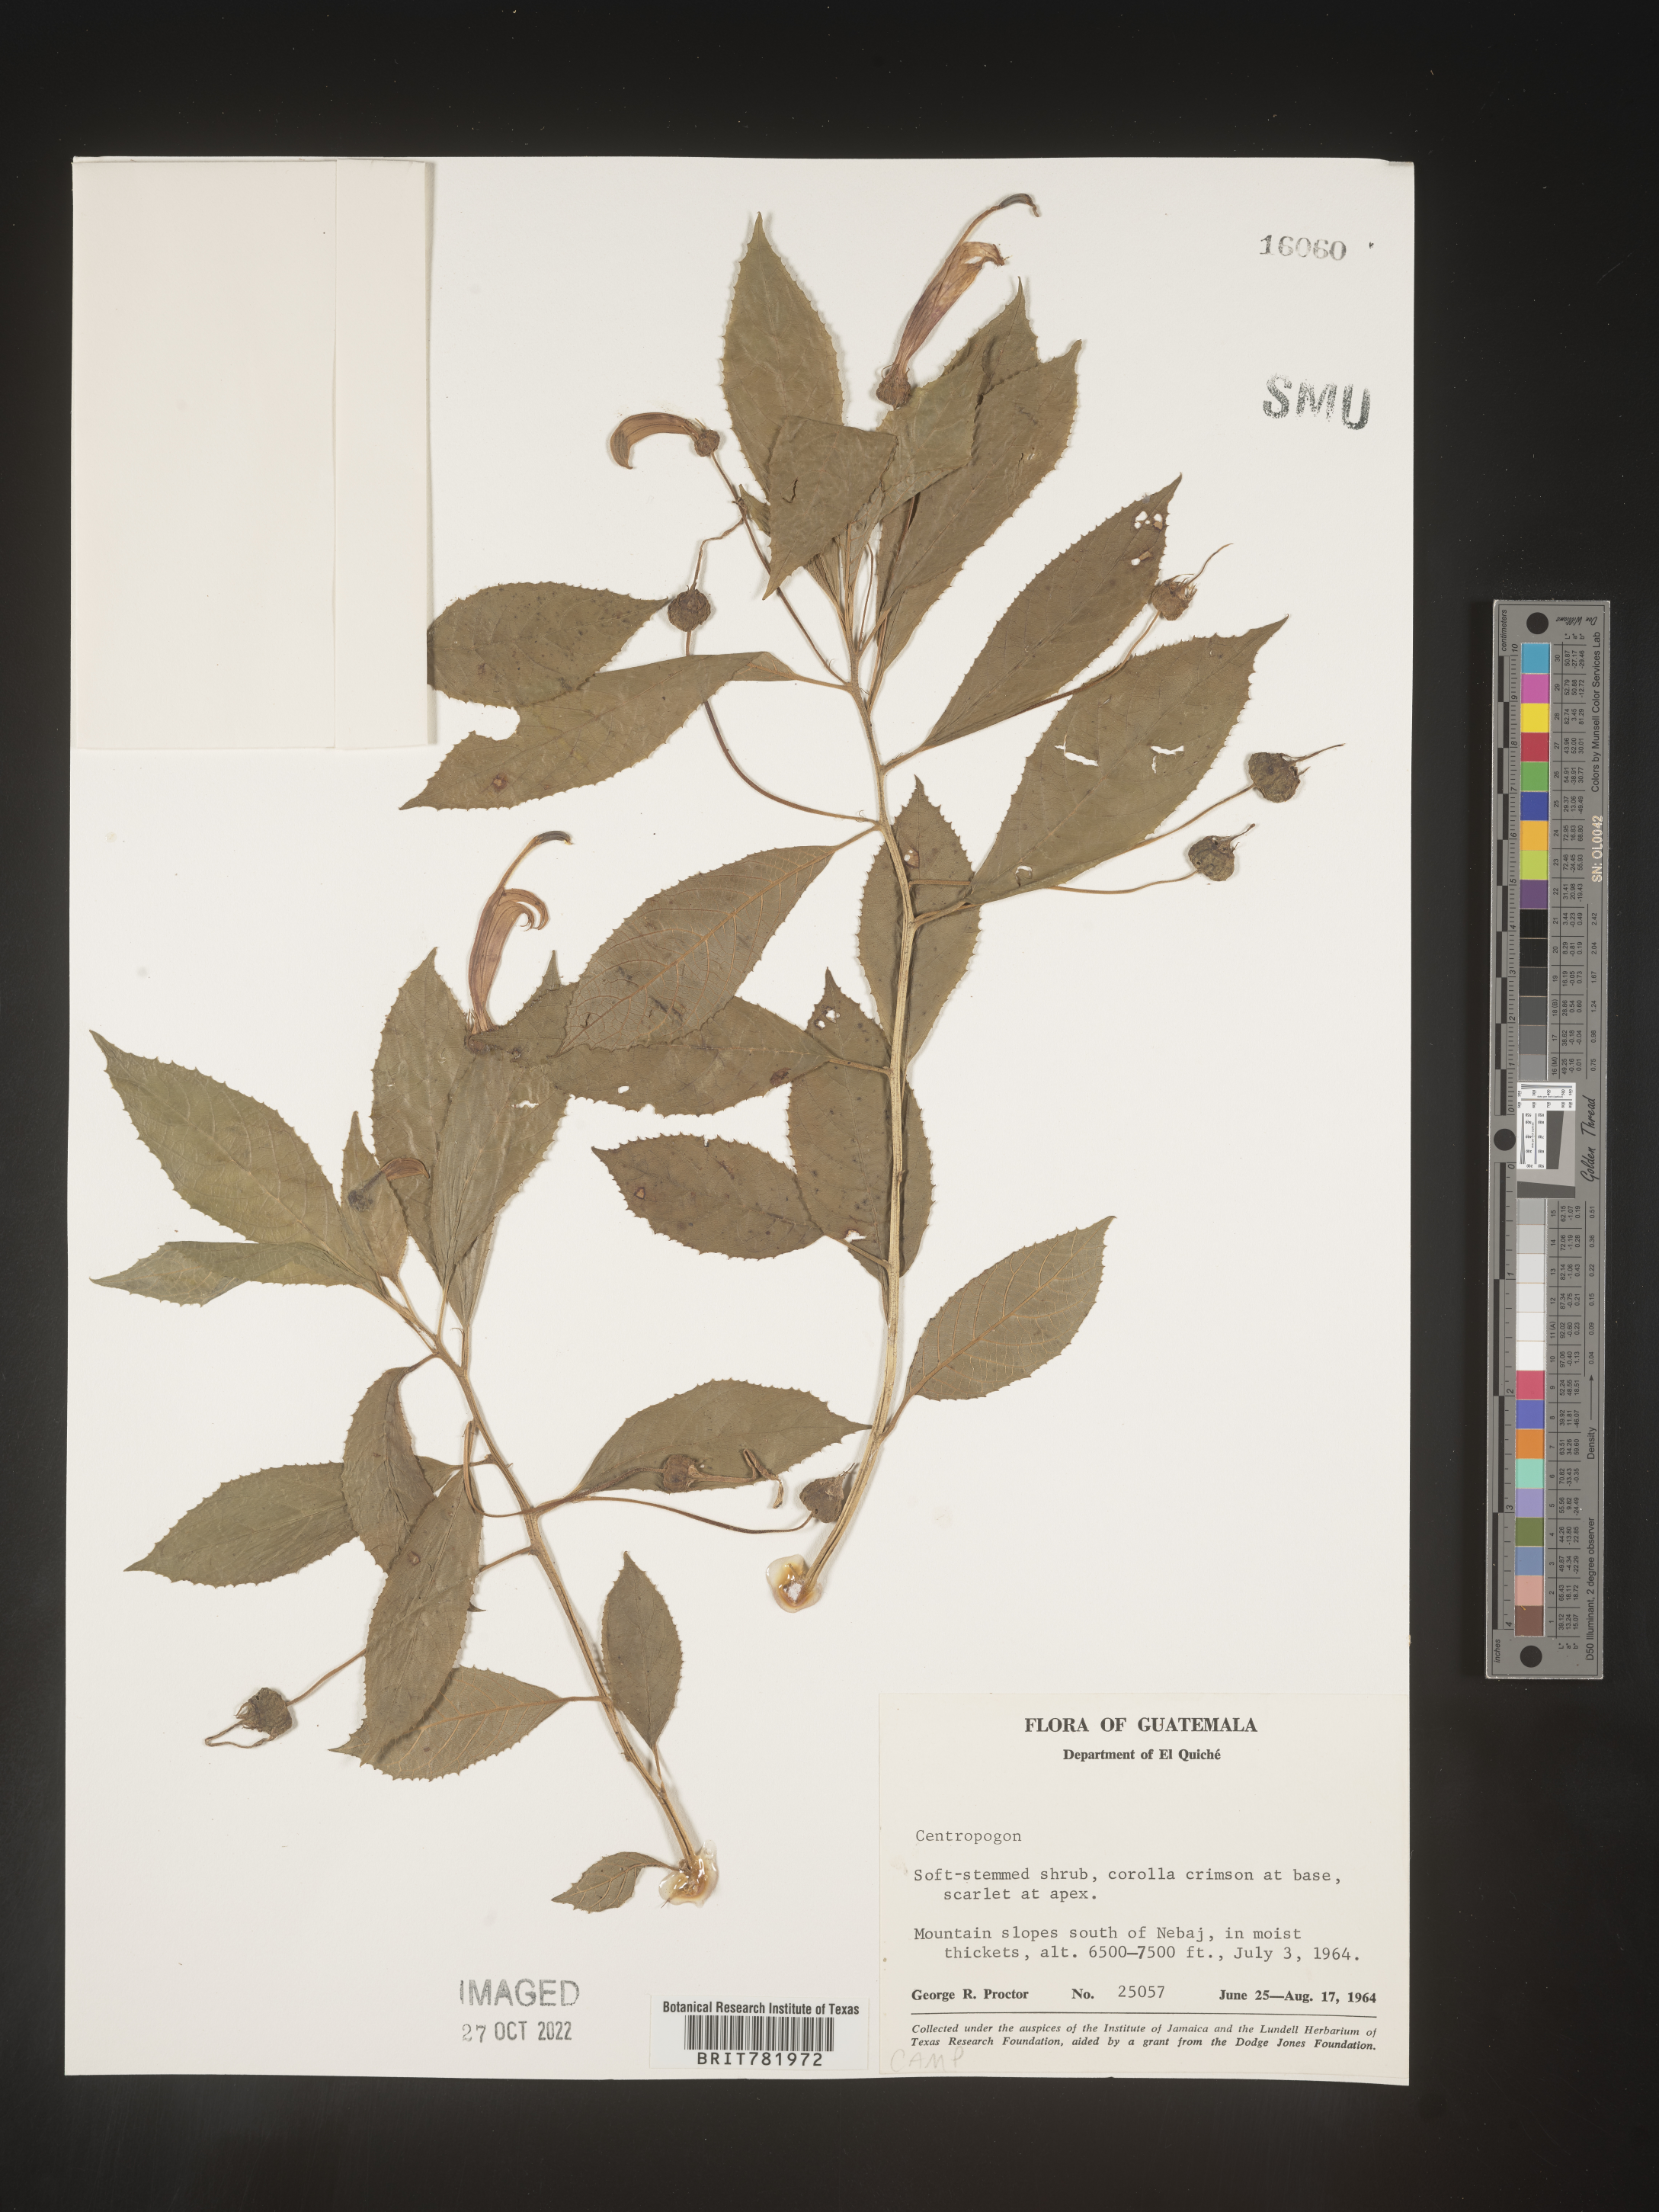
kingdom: Plantae
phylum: Tracheophyta
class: Magnoliopsida
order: Asterales
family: Campanulaceae
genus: Centropogon
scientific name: Centropogon
